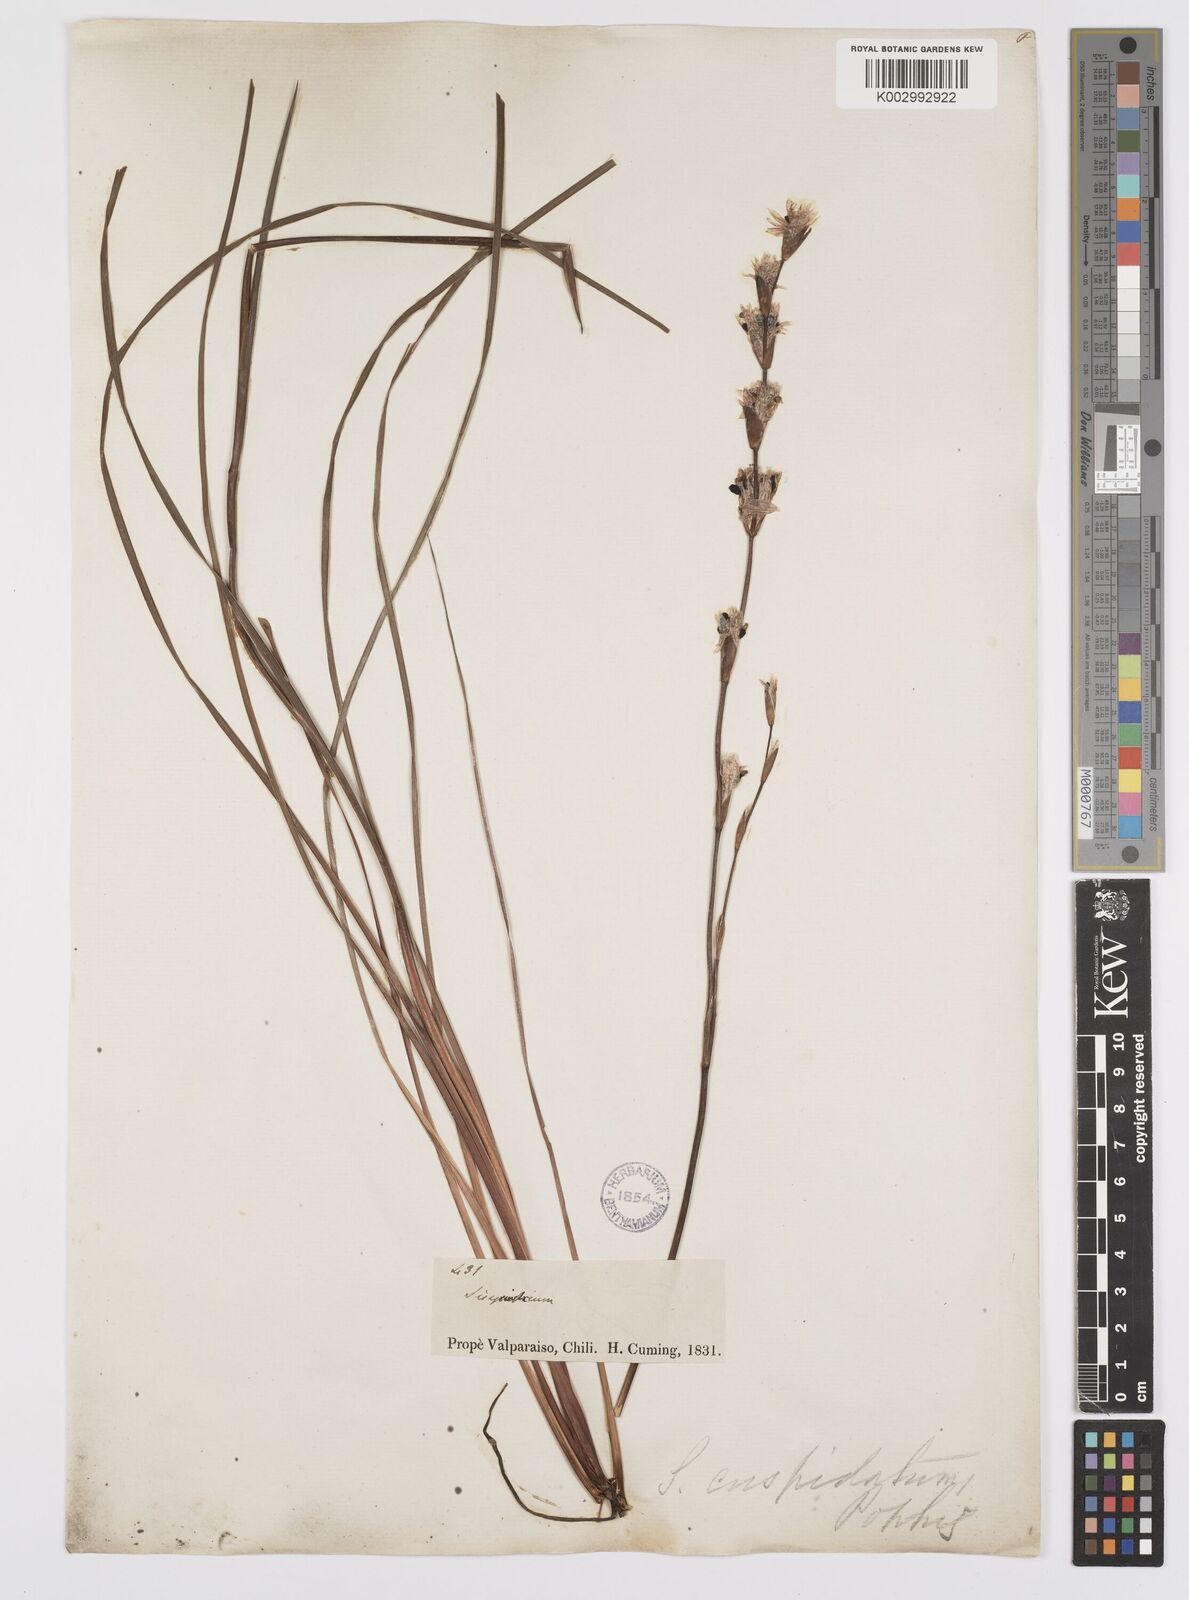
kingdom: Plantae
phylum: Tracheophyta
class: Liliopsida
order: Asparagales
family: Iridaceae
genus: Sisyrinchium
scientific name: Sisyrinchium cuspidatum
